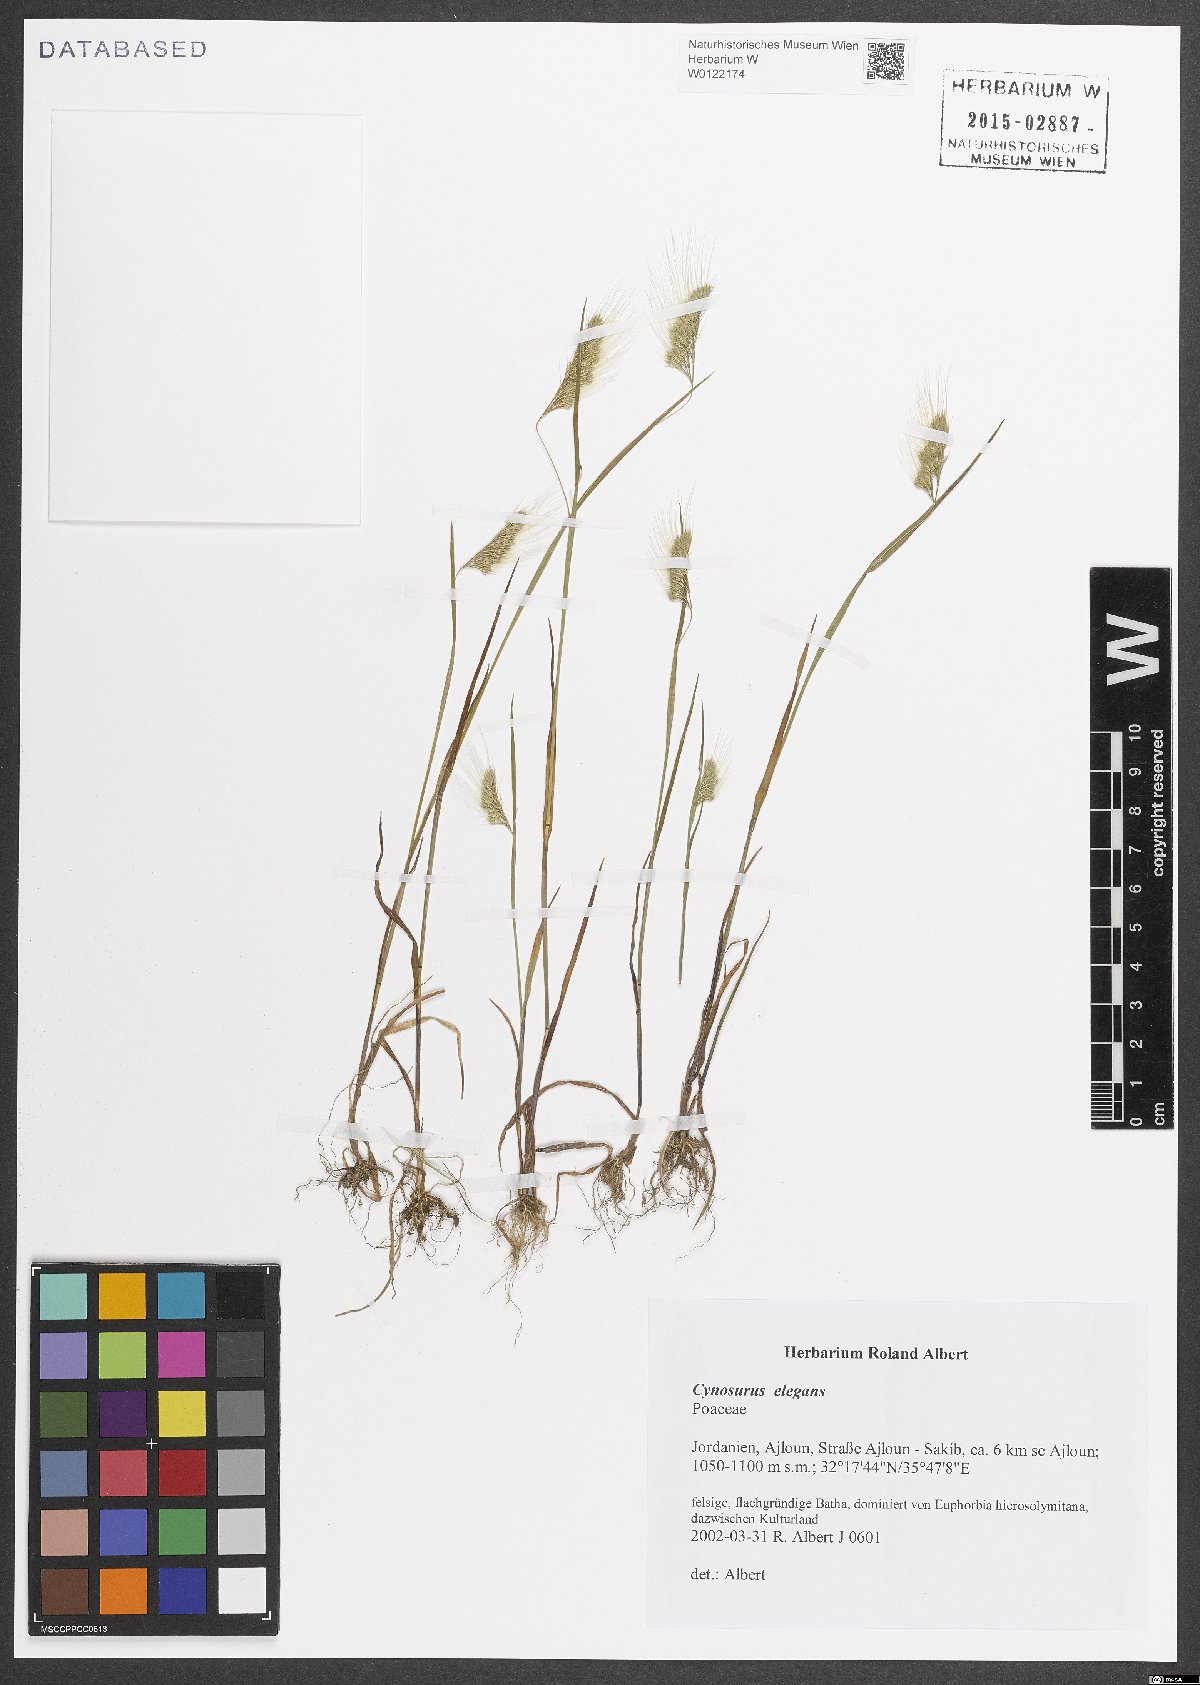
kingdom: Plantae
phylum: Tracheophyta
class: Liliopsida
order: Poales
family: Poaceae
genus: Cynosurus
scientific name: Cynosurus elegans
